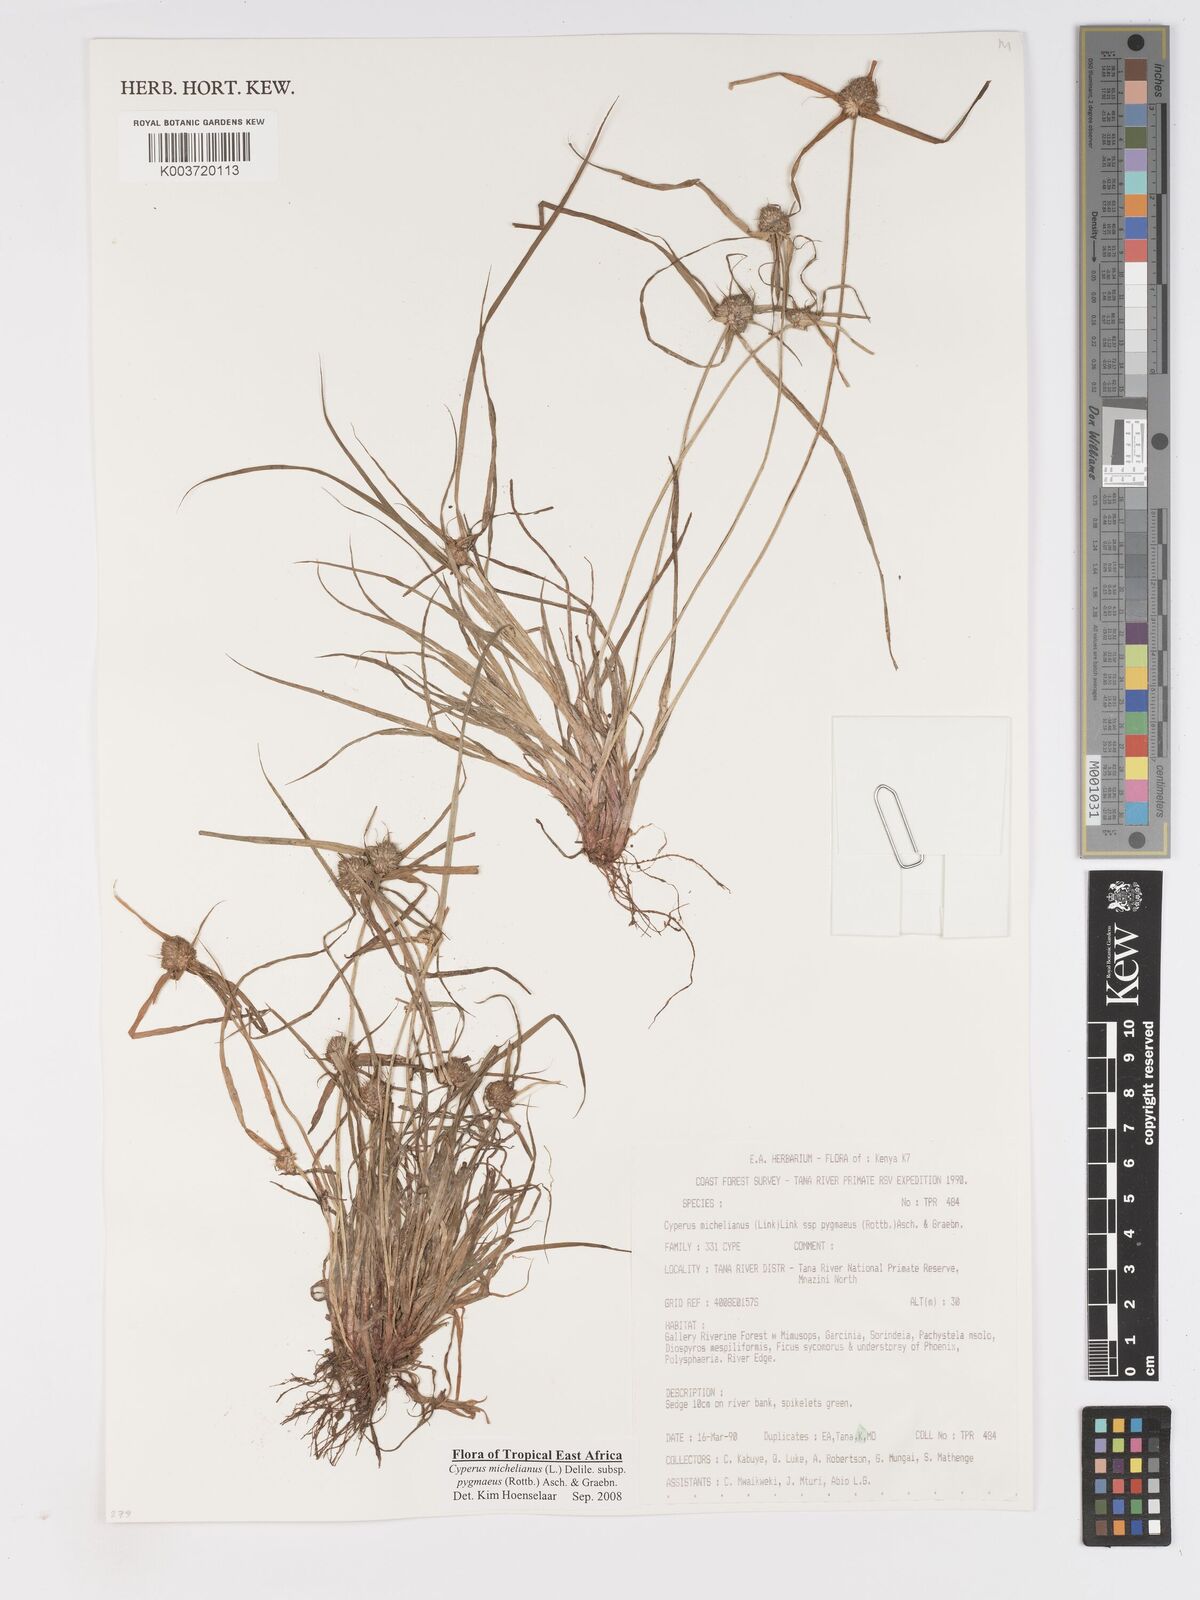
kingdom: Plantae
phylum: Tracheophyta
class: Liliopsida
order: Poales
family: Cyperaceae
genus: Cyperus
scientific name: Cyperus michelianus
